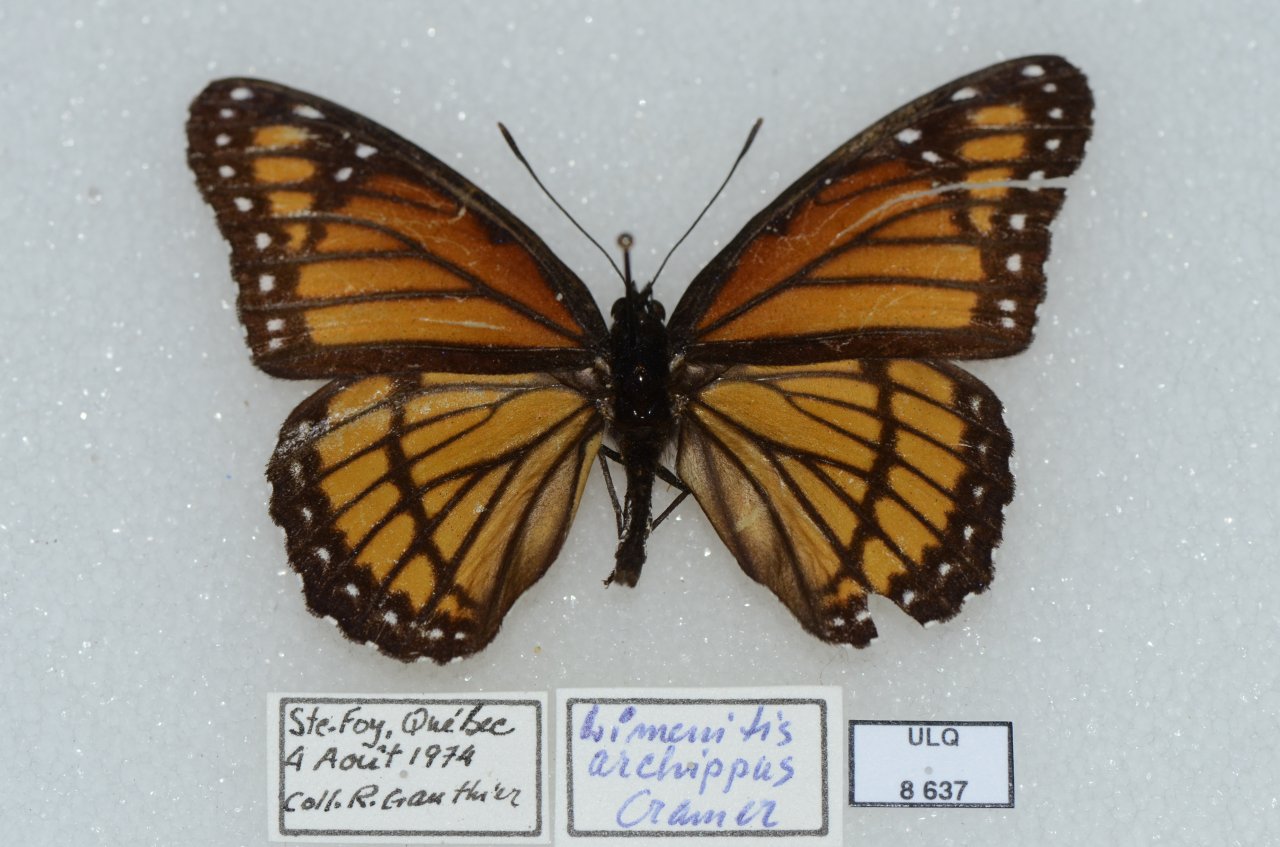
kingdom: Animalia
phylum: Arthropoda
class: Insecta
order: Lepidoptera
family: Nymphalidae
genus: Limenitis
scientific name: Limenitis archippus
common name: Viceroy
